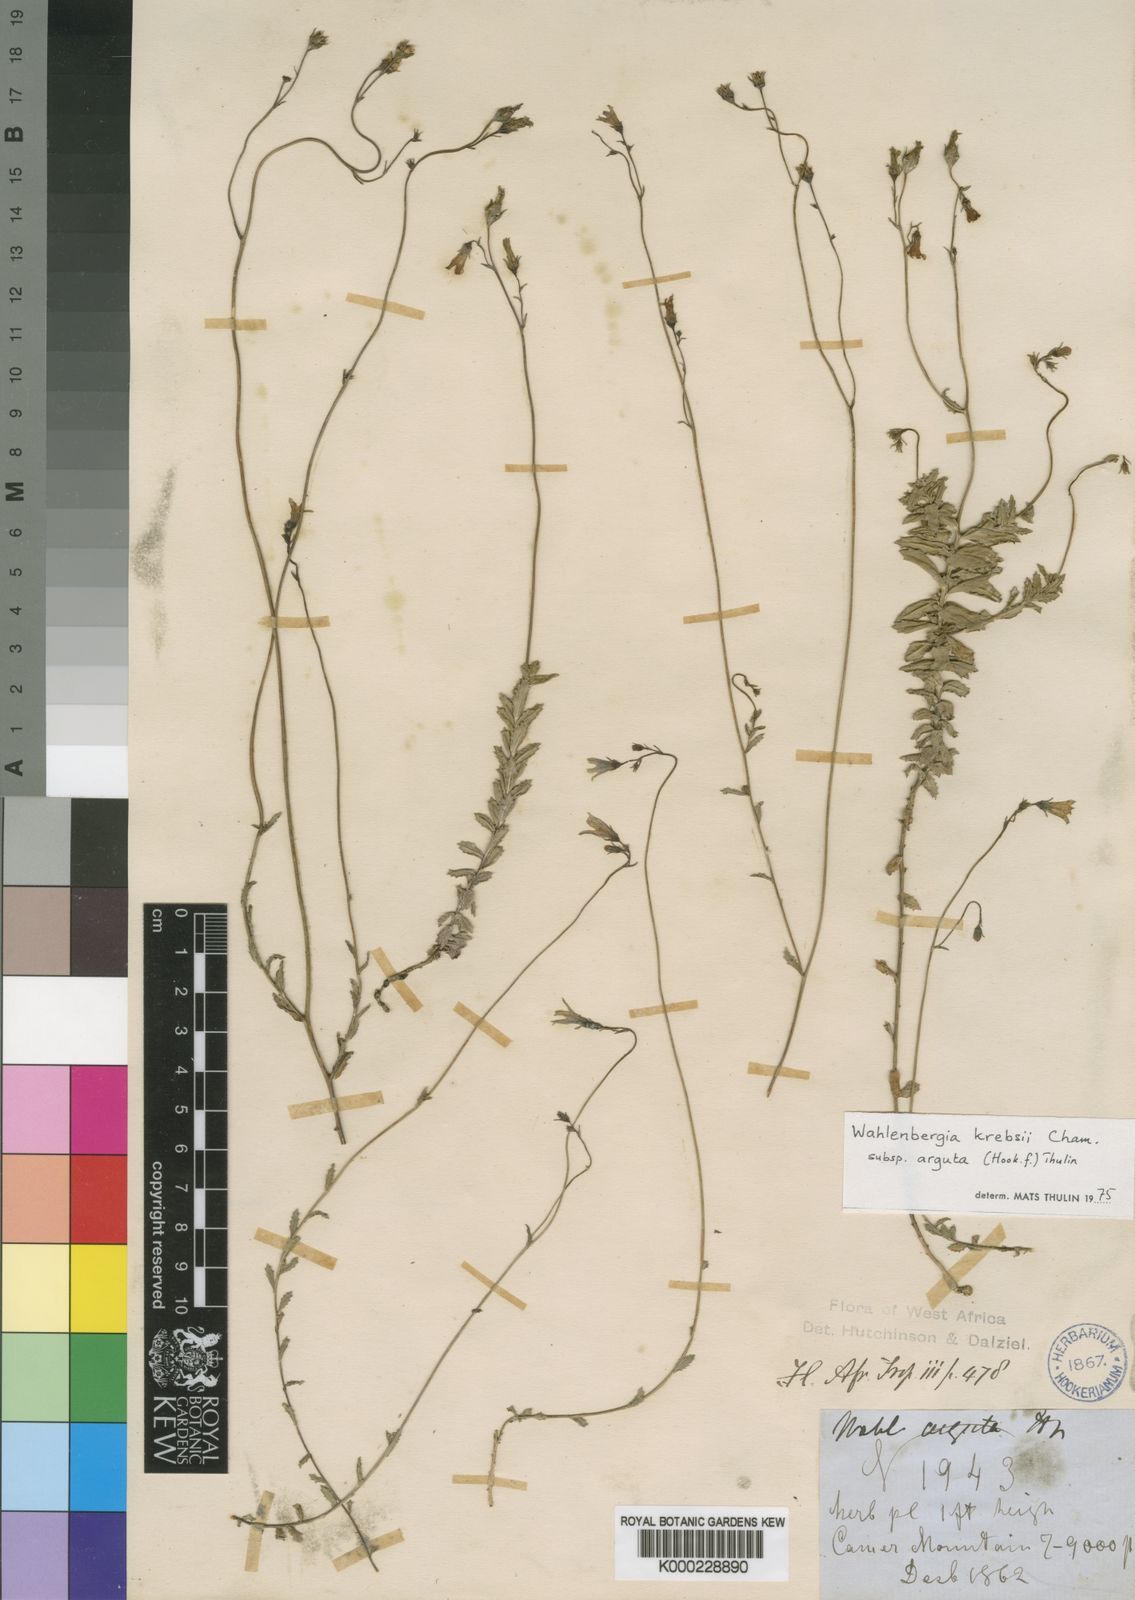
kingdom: Plantae
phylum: Tracheophyta
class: Magnoliopsida
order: Asterales
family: Campanulaceae
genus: Wahlenbergia
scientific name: Wahlenbergia krebsii
